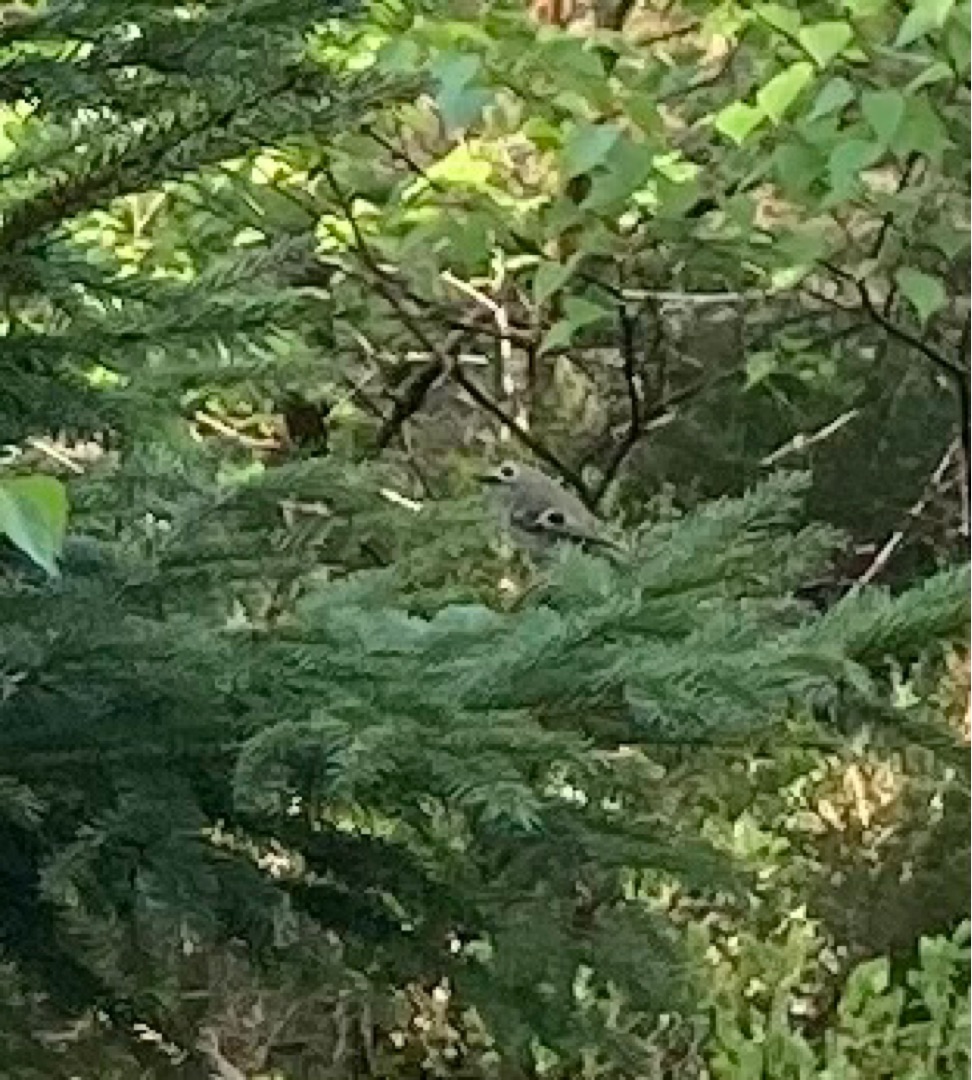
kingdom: Animalia
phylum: Chordata
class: Aves
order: Passeriformes
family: Regulidae
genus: Regulus
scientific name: Regulus regulus
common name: Fuglekonge
